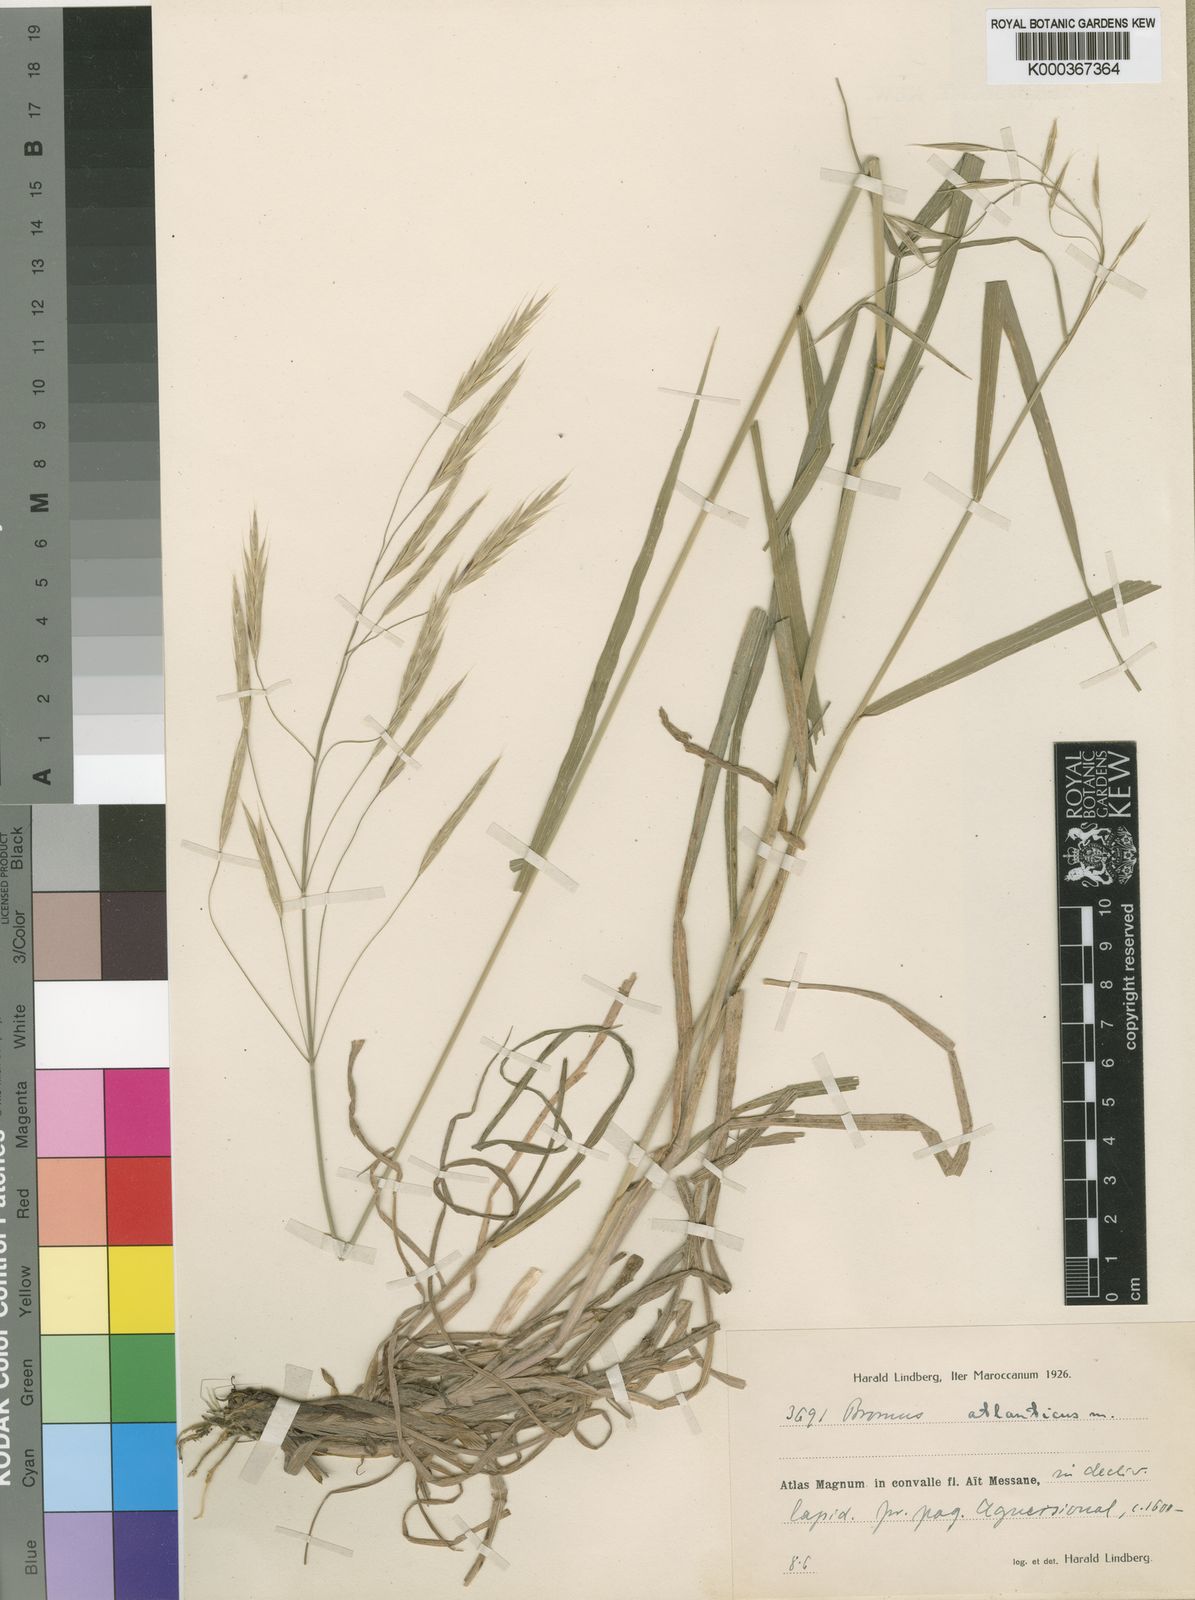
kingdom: Plantae
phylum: Tracheophyta
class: Liliopsida
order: Poales
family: Poaceae
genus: Brachypodium
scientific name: Brachypodium retusum
